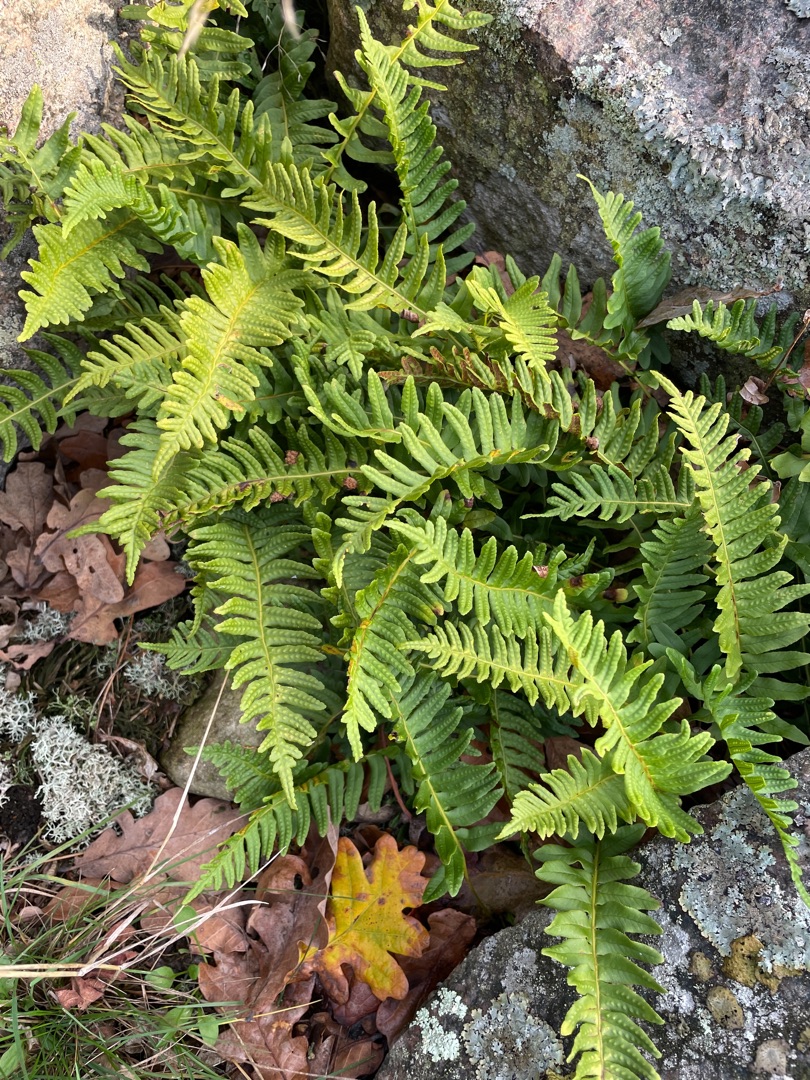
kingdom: Plantae
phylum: Tracheophyta
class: Polypodiopsida
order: Polypodiales
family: Polypodiaceae
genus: Polypodium
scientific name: Polypodium vulgare
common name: Almindelig engelsød
